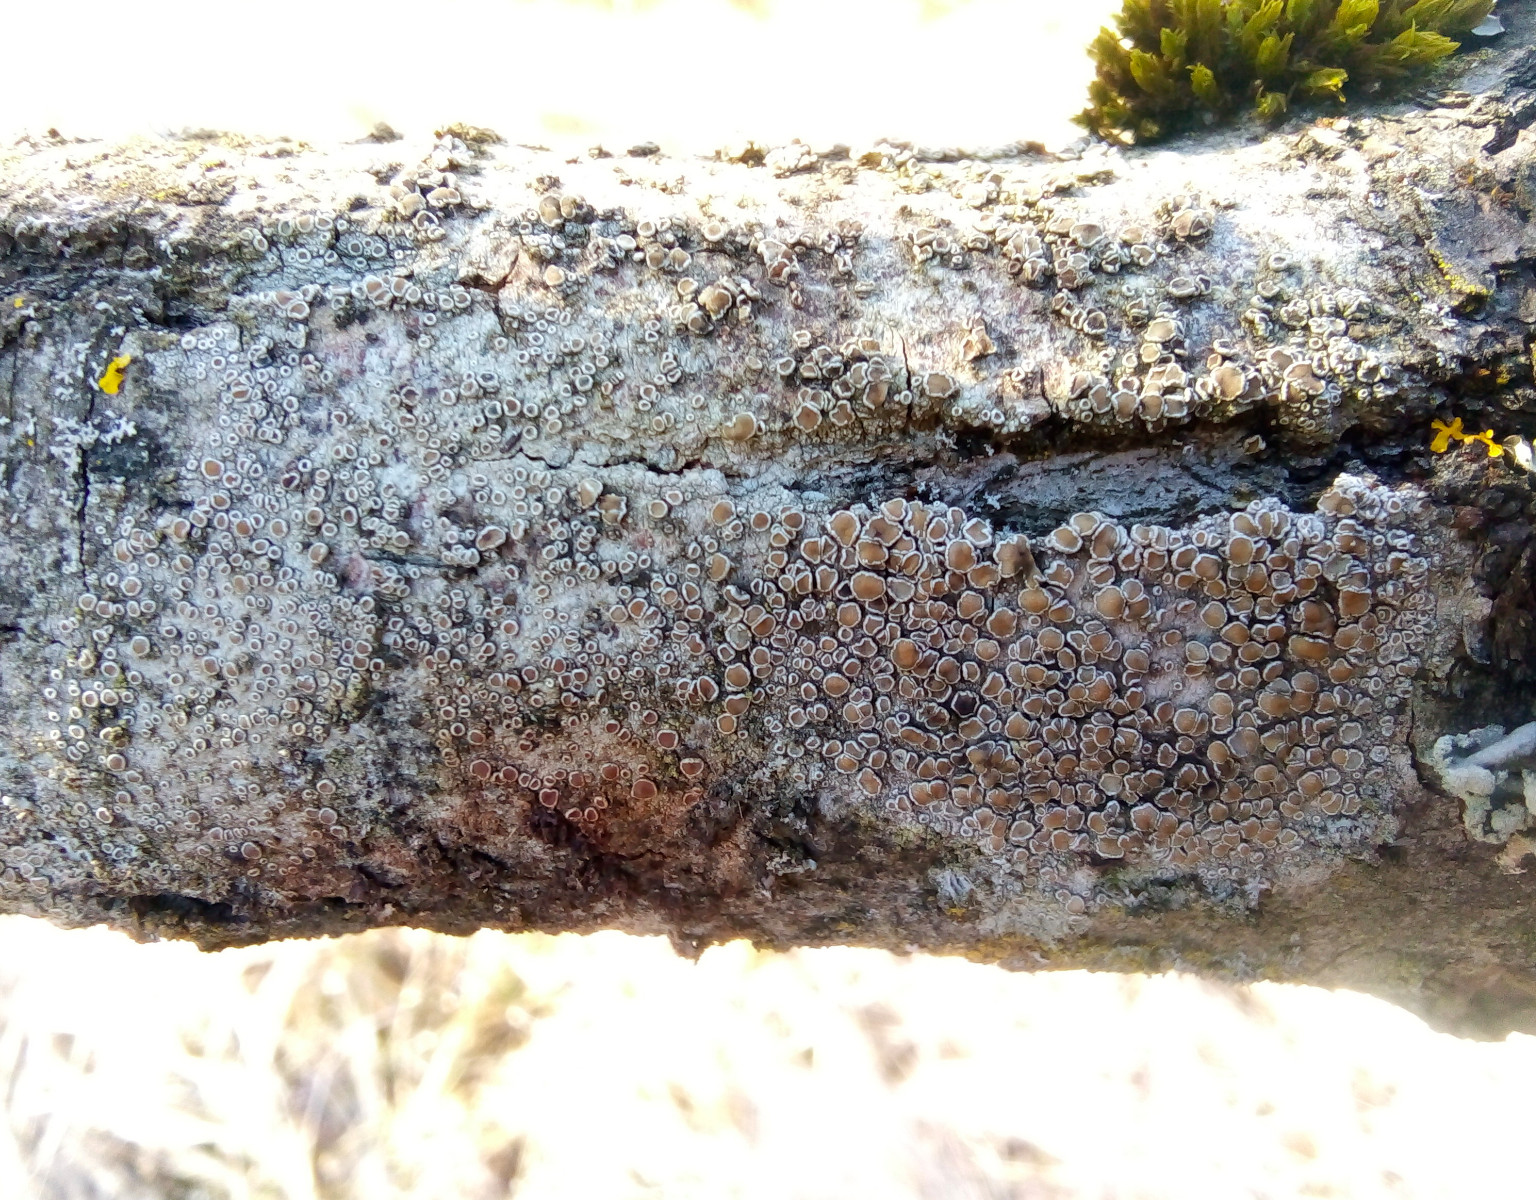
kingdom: Fungi
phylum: Ascomycota
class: Lecanoromycetes
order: Lecanorales
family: Lecanoraceae
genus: Lecanora
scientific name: Lecanora chlarotera
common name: brun kantskivelav
